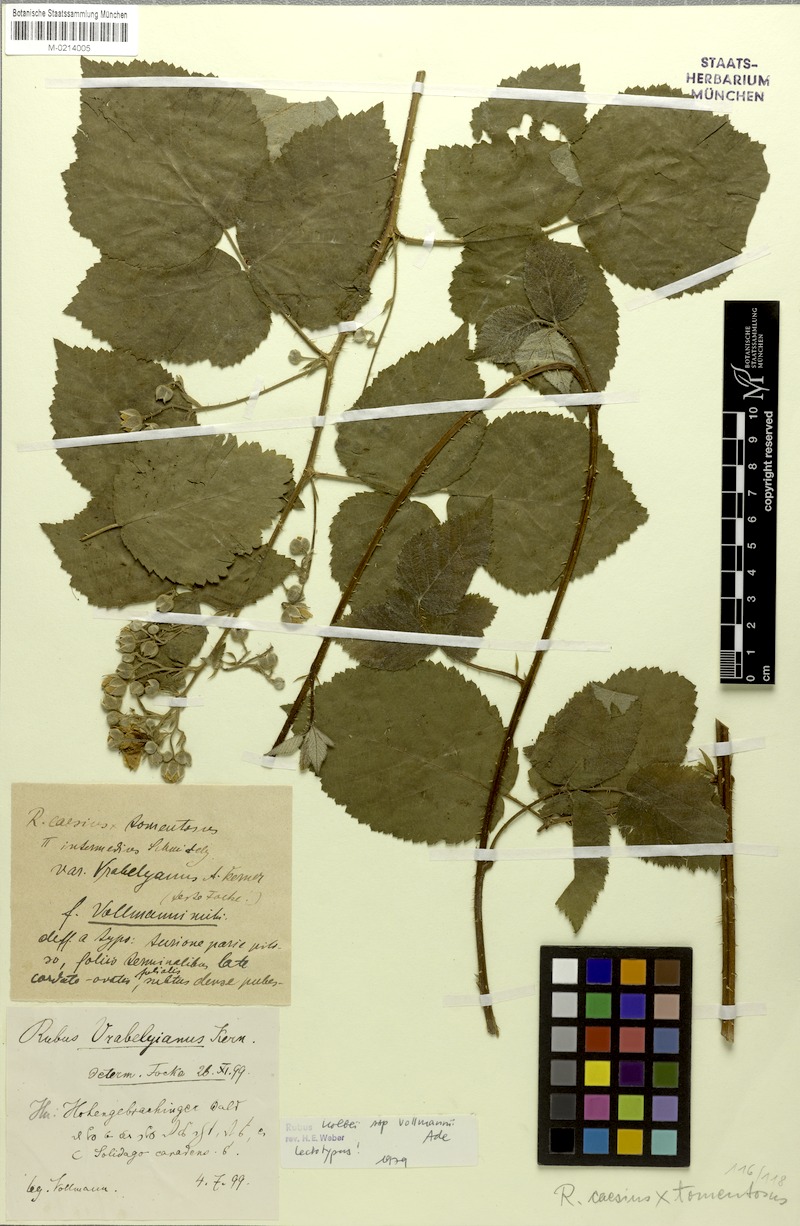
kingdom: Plantae
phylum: Tracheophyta
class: Magnoliopsida
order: Rosales
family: Rosaceae
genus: Rubus
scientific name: Rubus mollis
